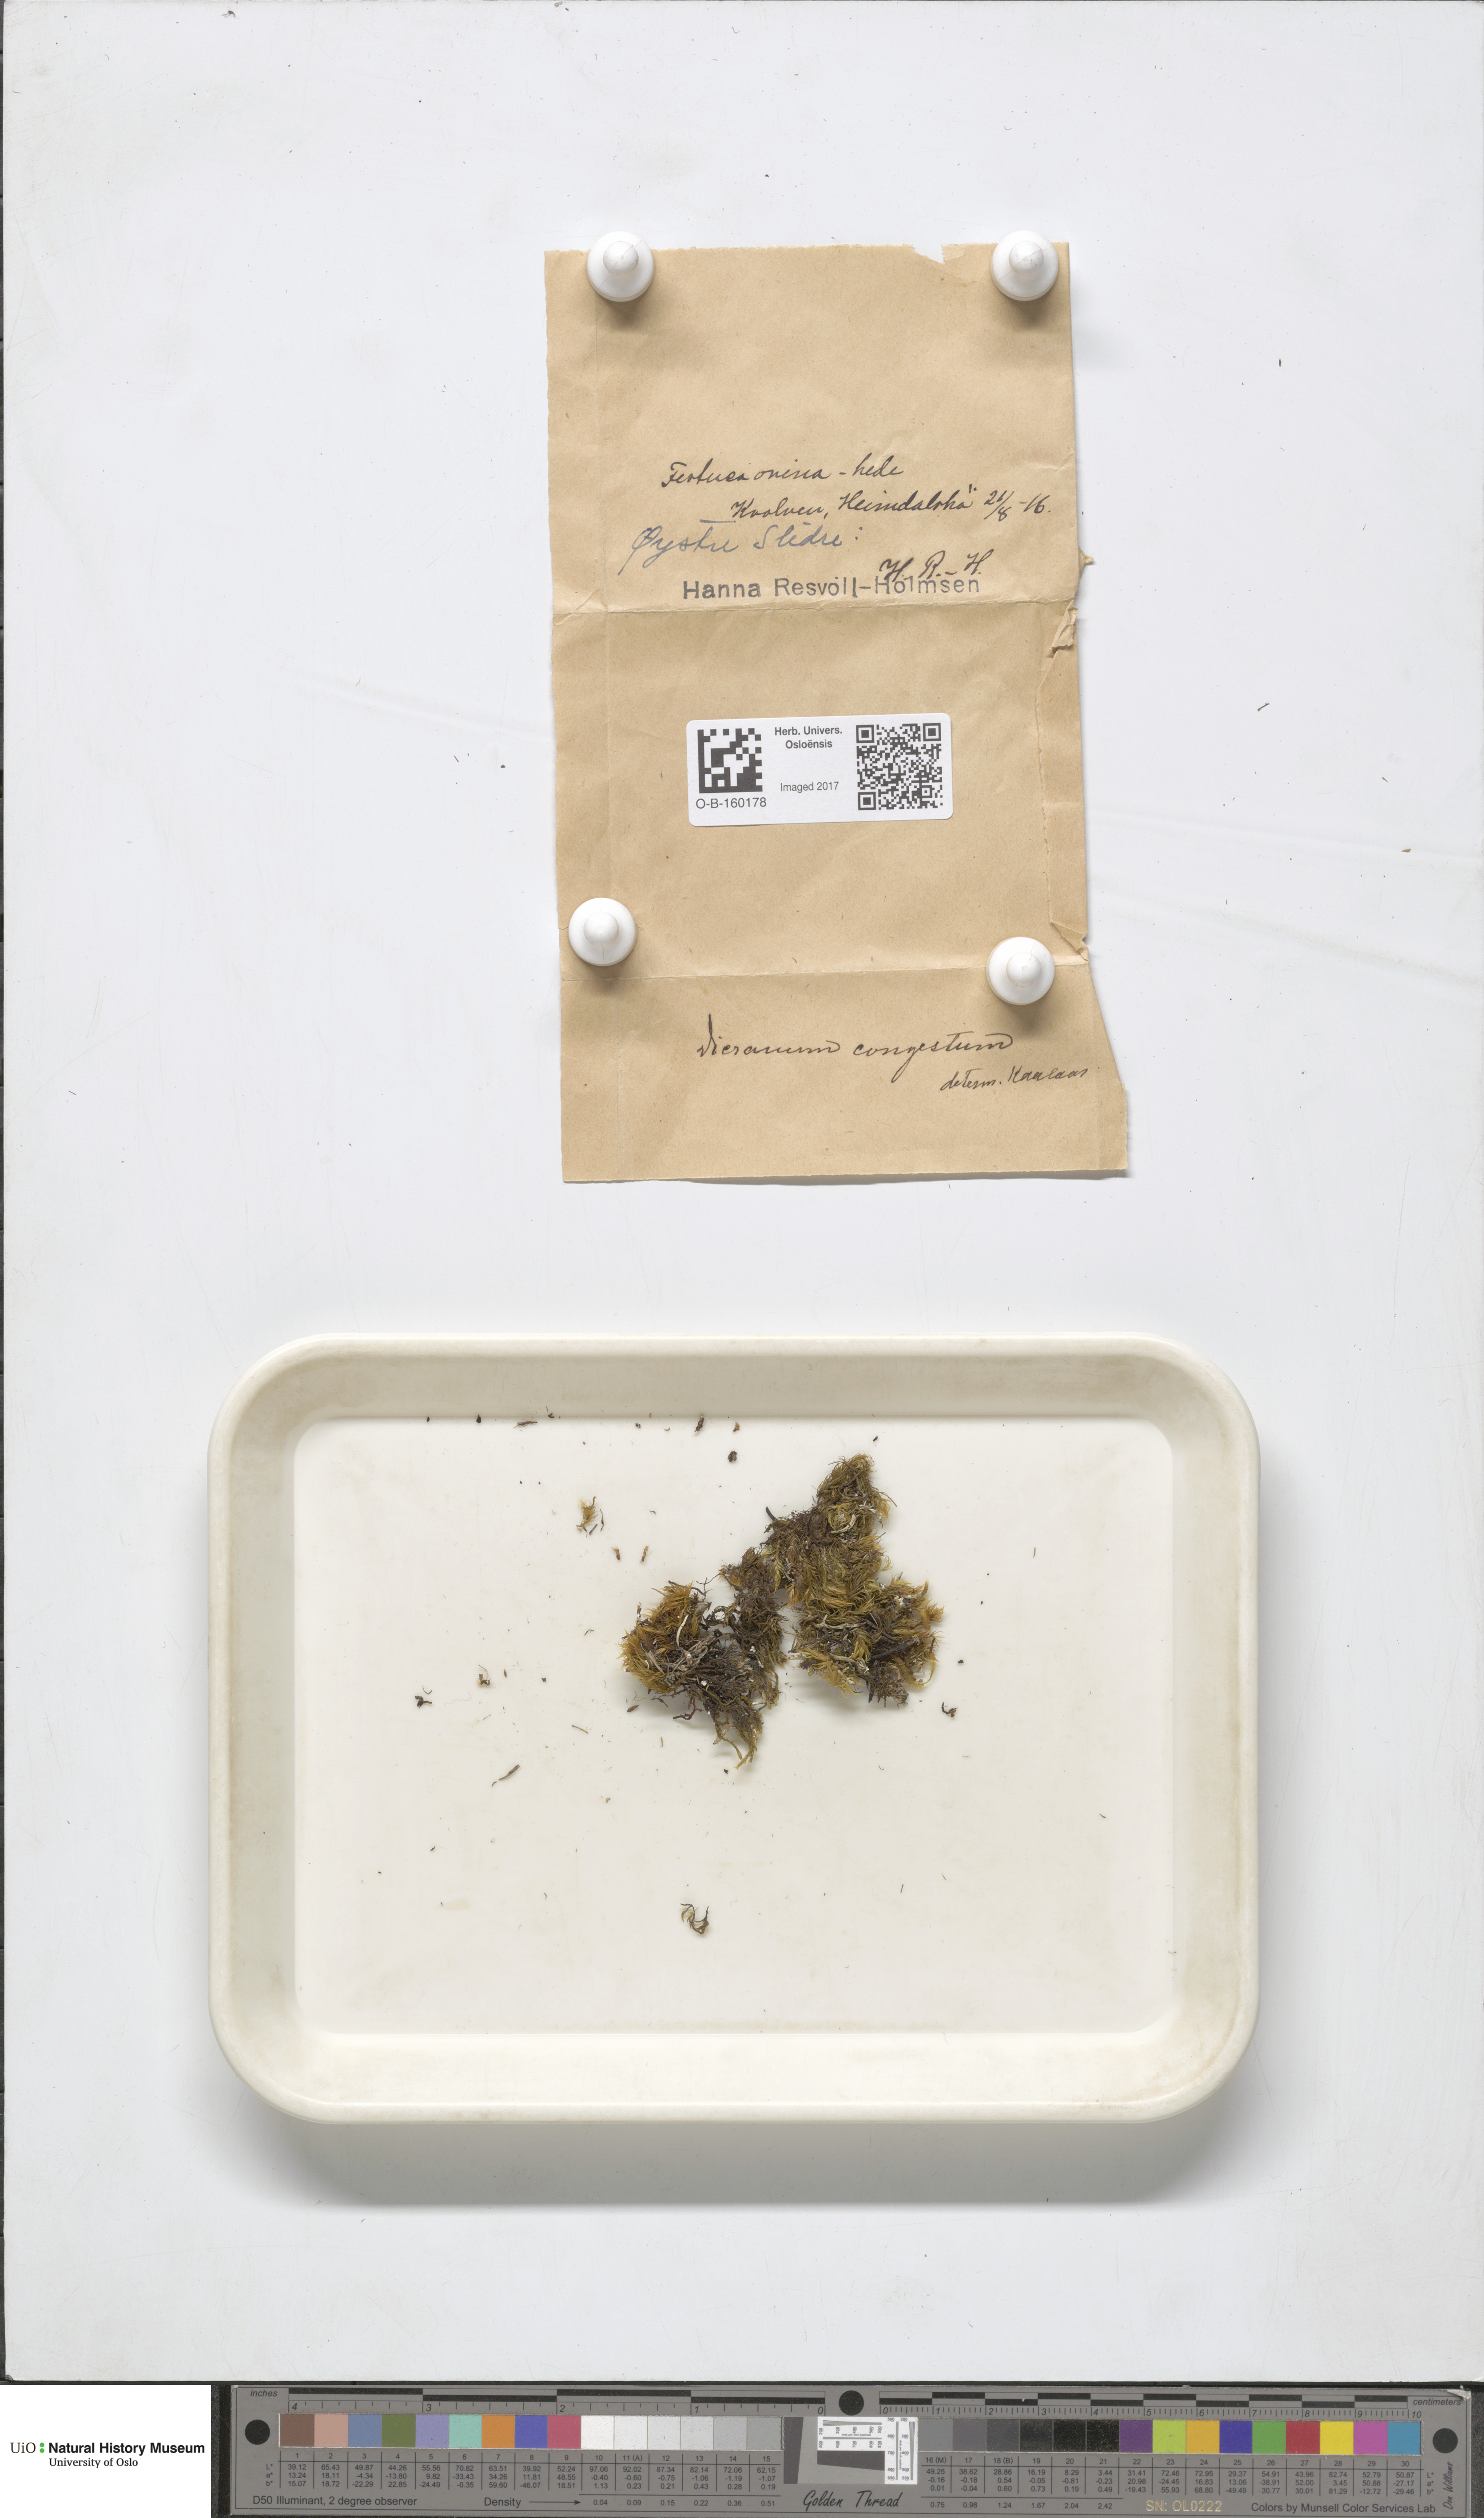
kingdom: Plantae
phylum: Bryophyta
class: Bryopsida
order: Dicranales
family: Dicranaceae
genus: Dicranum
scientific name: Dicranum flexicaule
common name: Bendy heron s-bill moss
